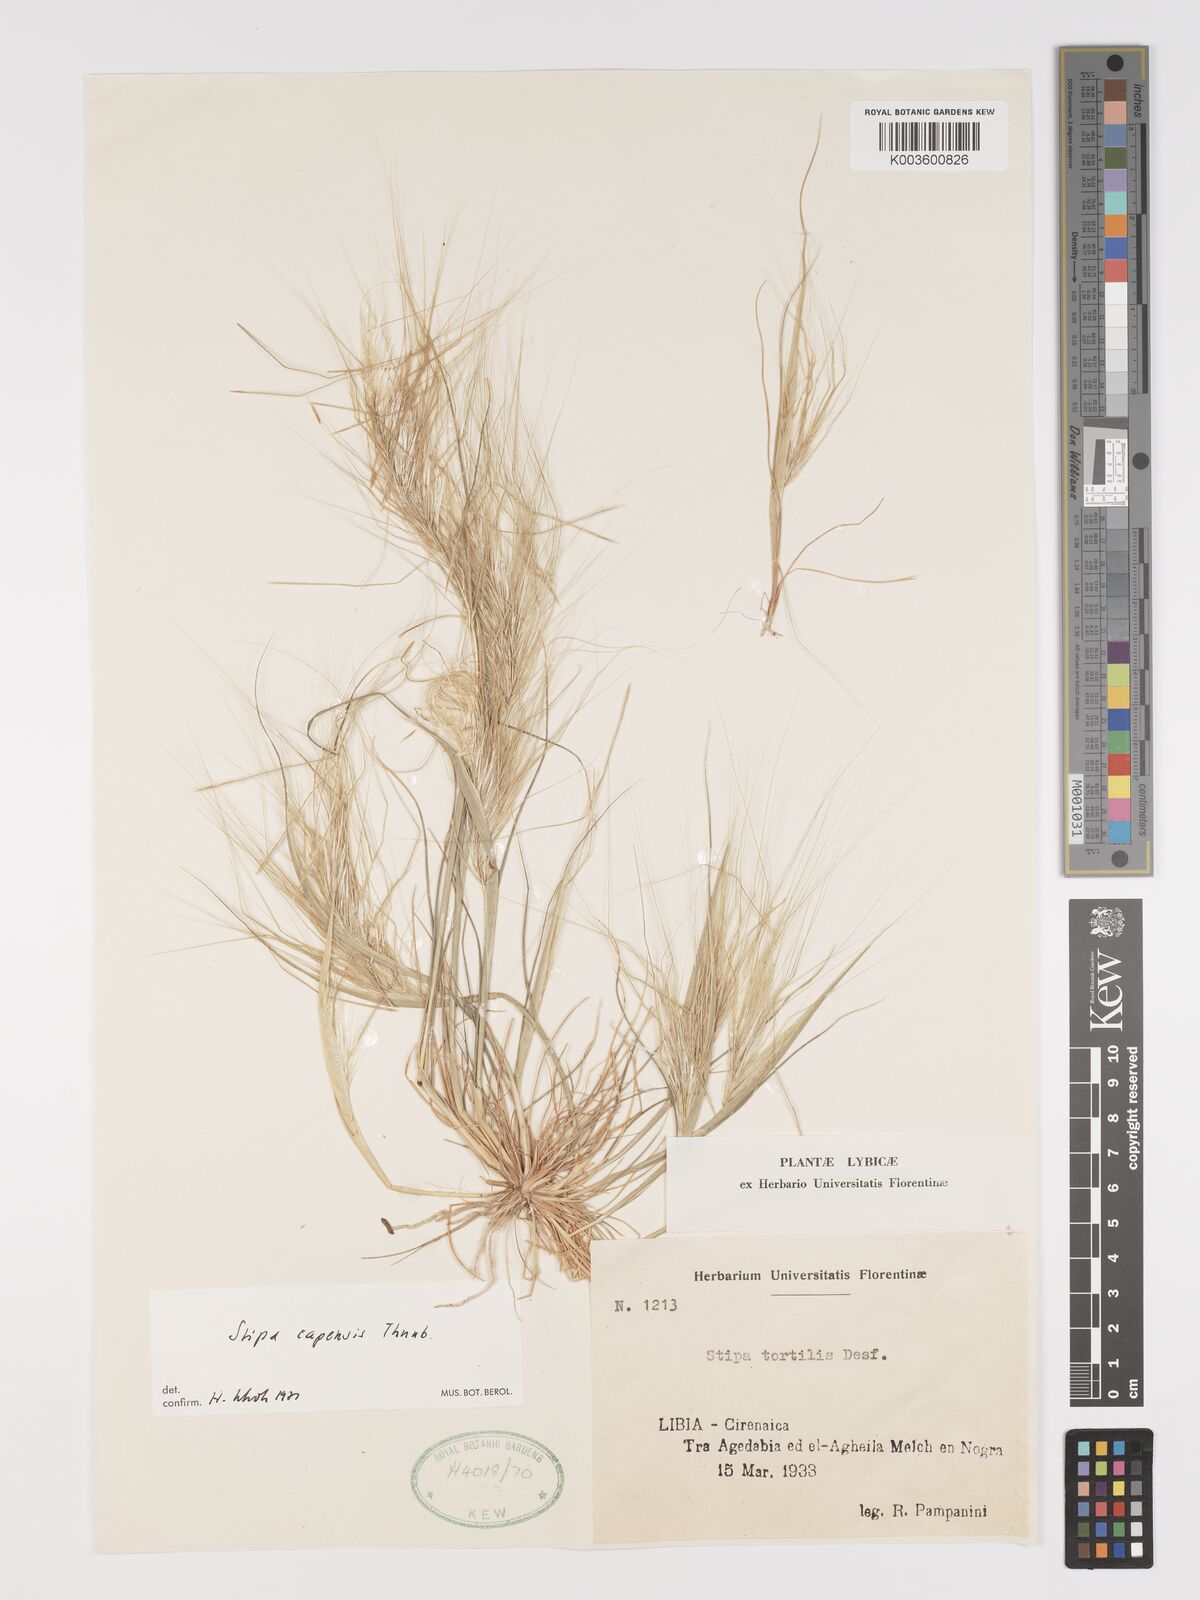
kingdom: Plantae
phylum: Tracheophyta
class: Liliopsida
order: Poales
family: Poaceae
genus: Stipellula
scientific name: Stipellula capensis
